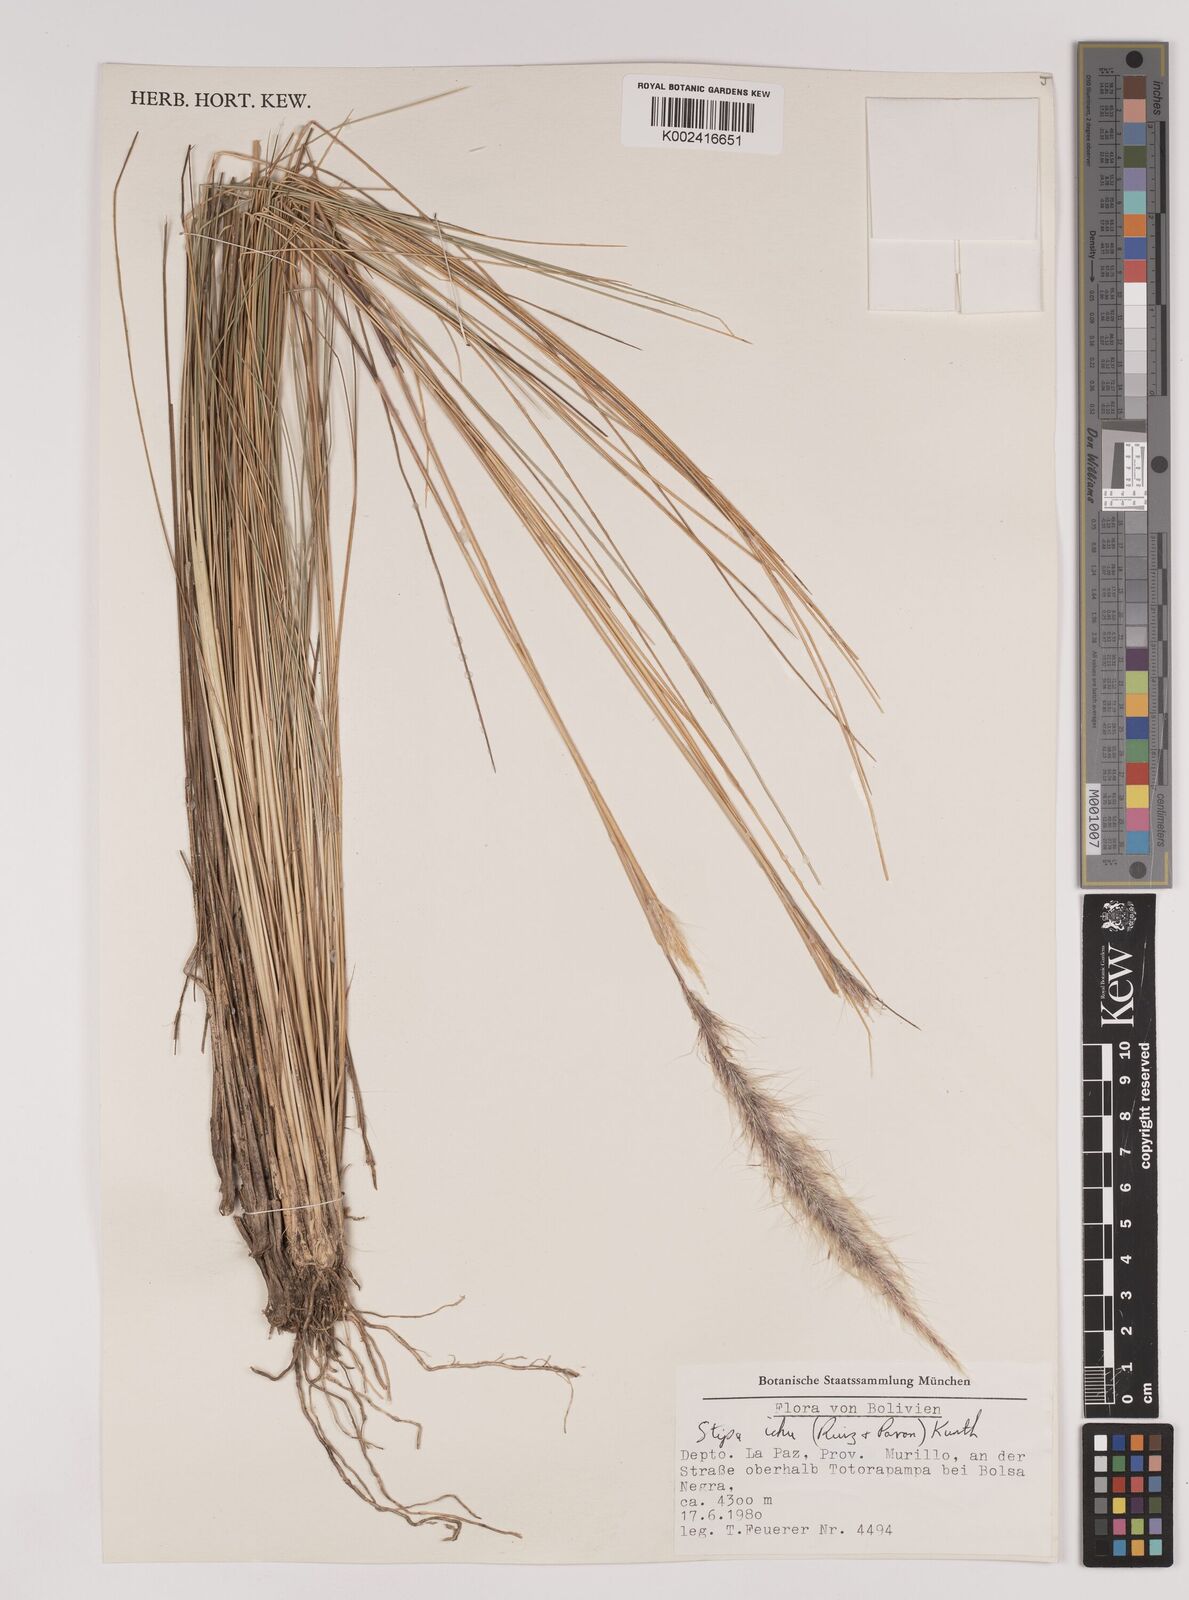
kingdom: Plantae
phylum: Tracheophyta
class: Liliopsida
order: Poales
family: Poaceae
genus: Stipa
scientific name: Stipa pungens
